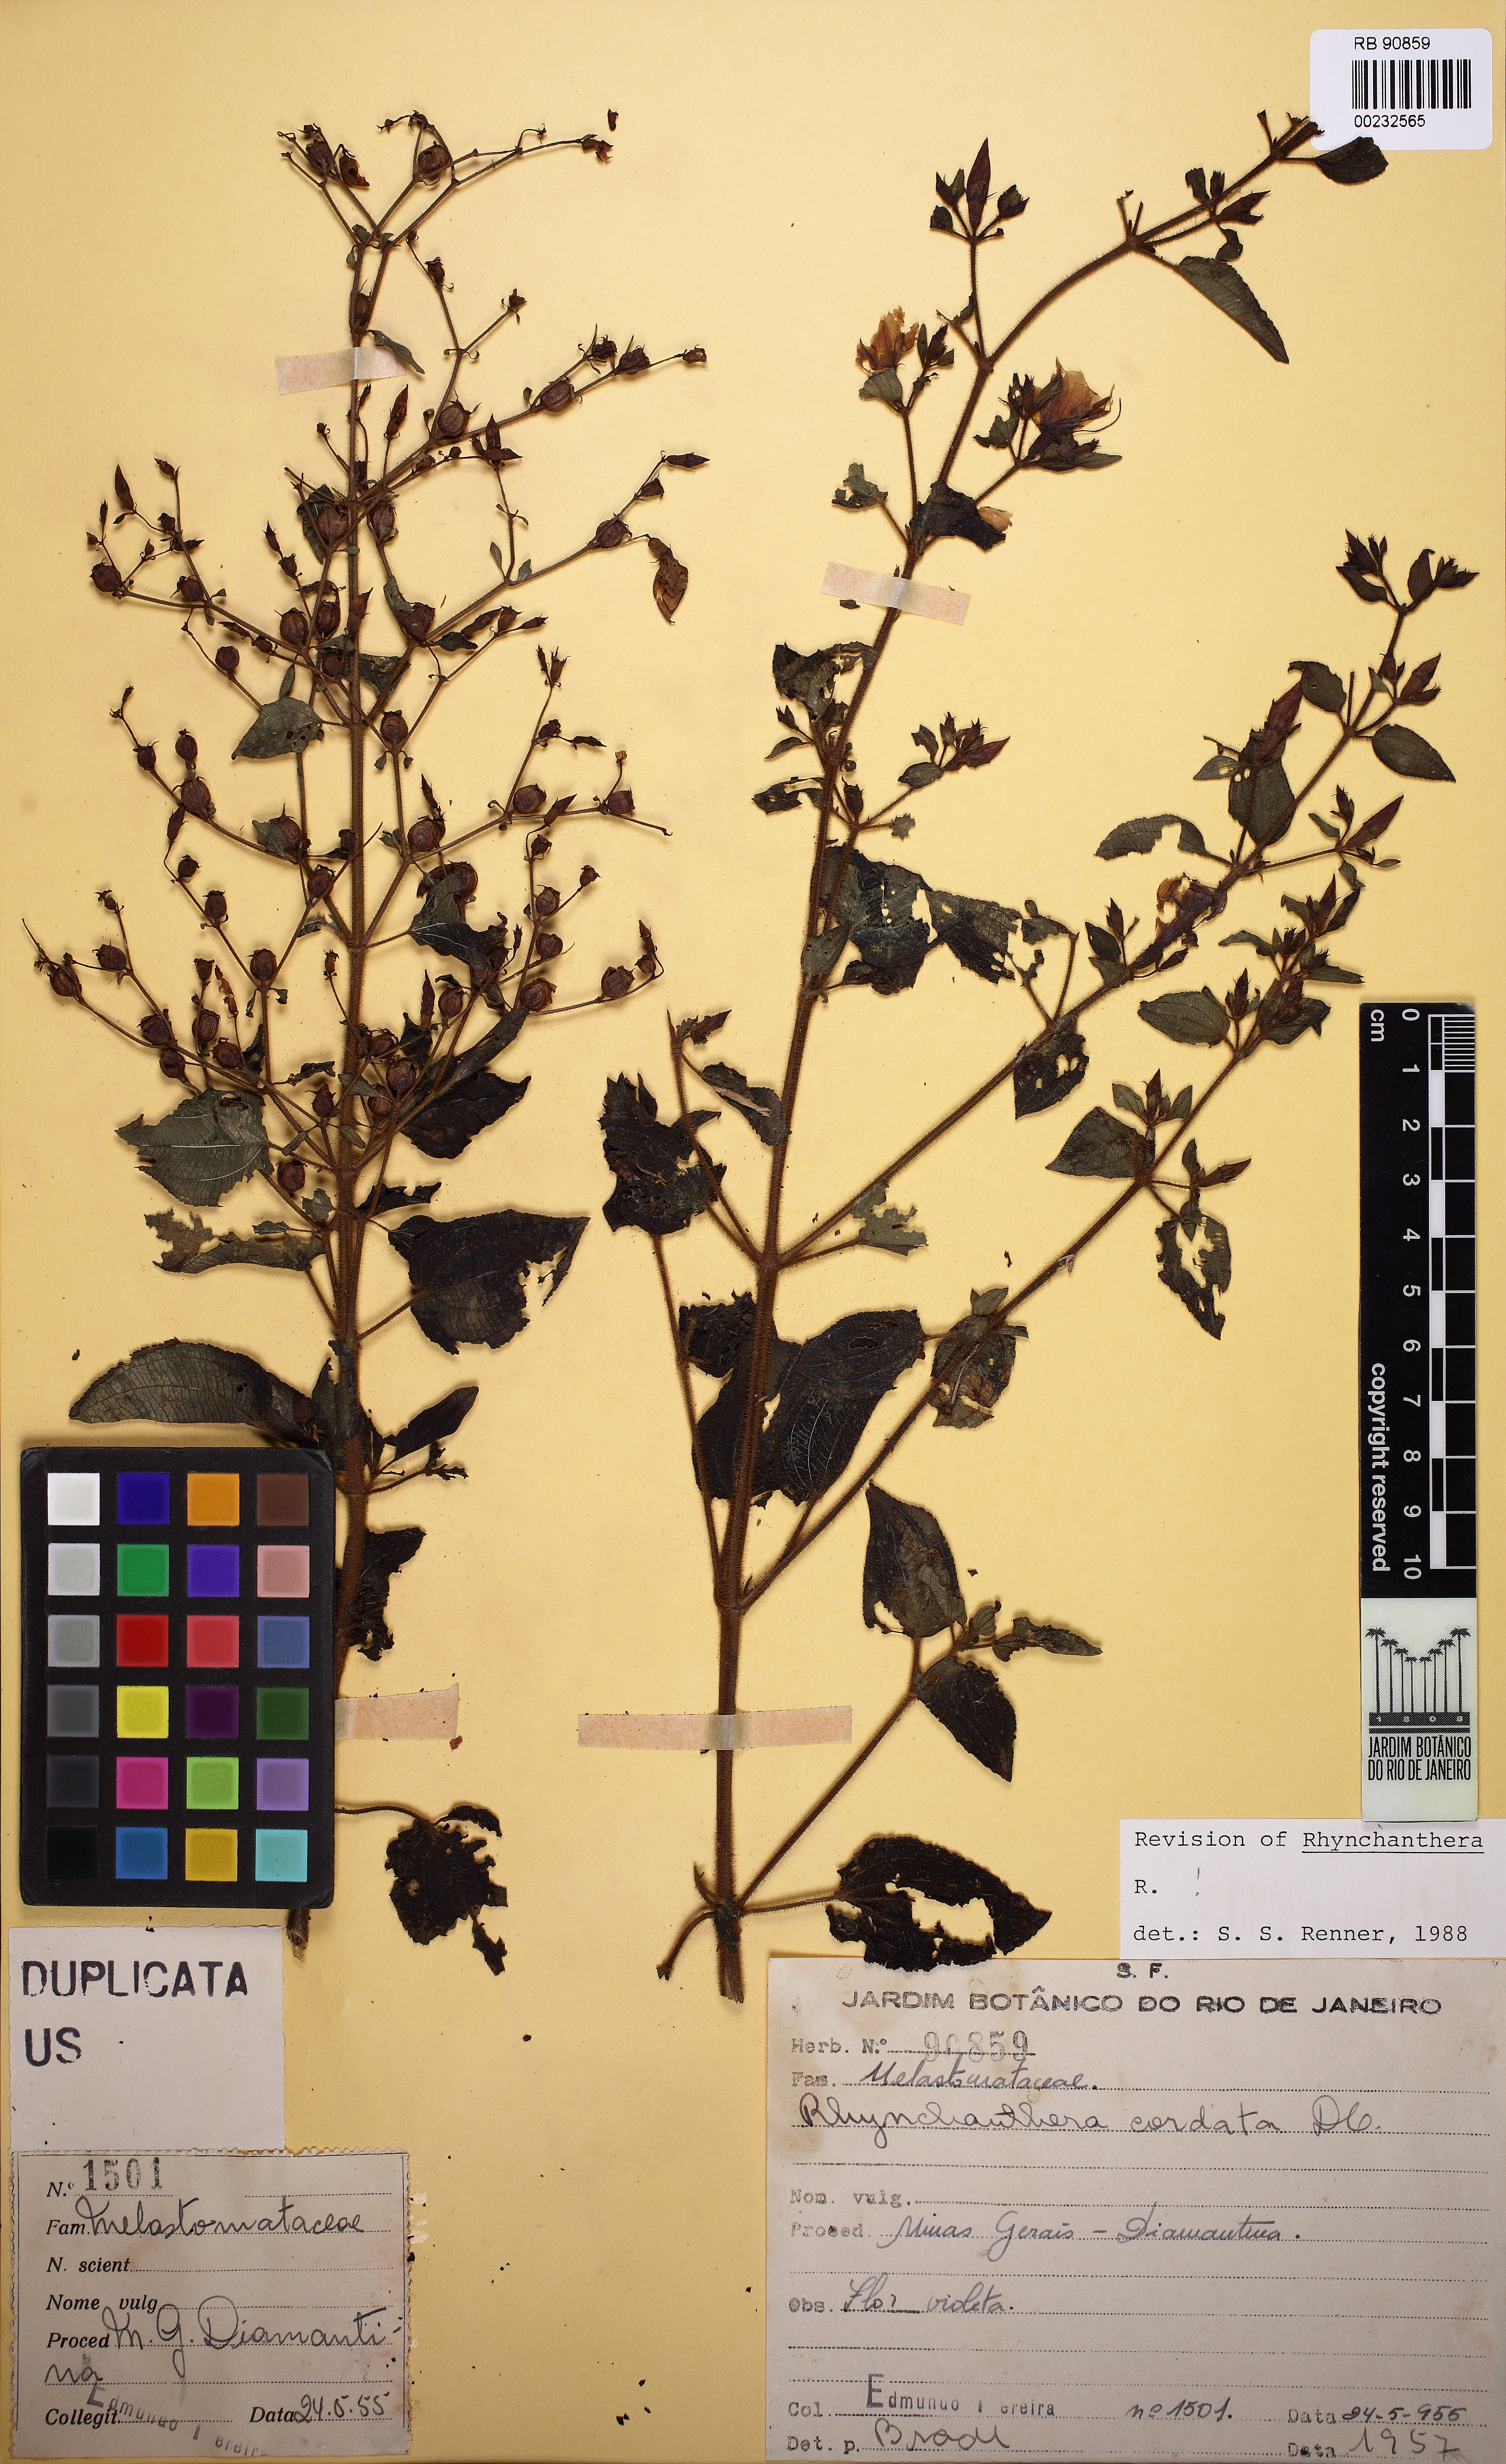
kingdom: Plantae
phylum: Tracheophyta
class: Magnoliopsida
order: Myrtales
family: Melastomataceae
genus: Rhynchanthera
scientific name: Rhynchanthera cordata
